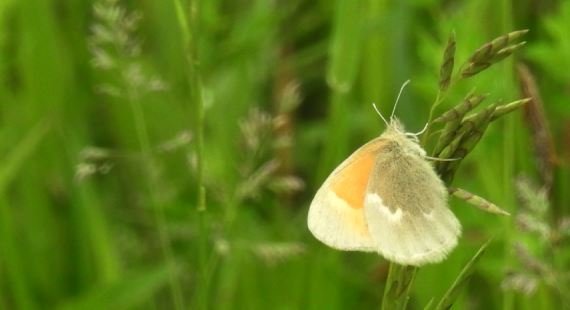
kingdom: Animalia
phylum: Arthropoda
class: Insecta
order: Lepidoptera
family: Nymphalidae
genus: Coenonympha
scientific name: Coenonympha tullia
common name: Large Heath
